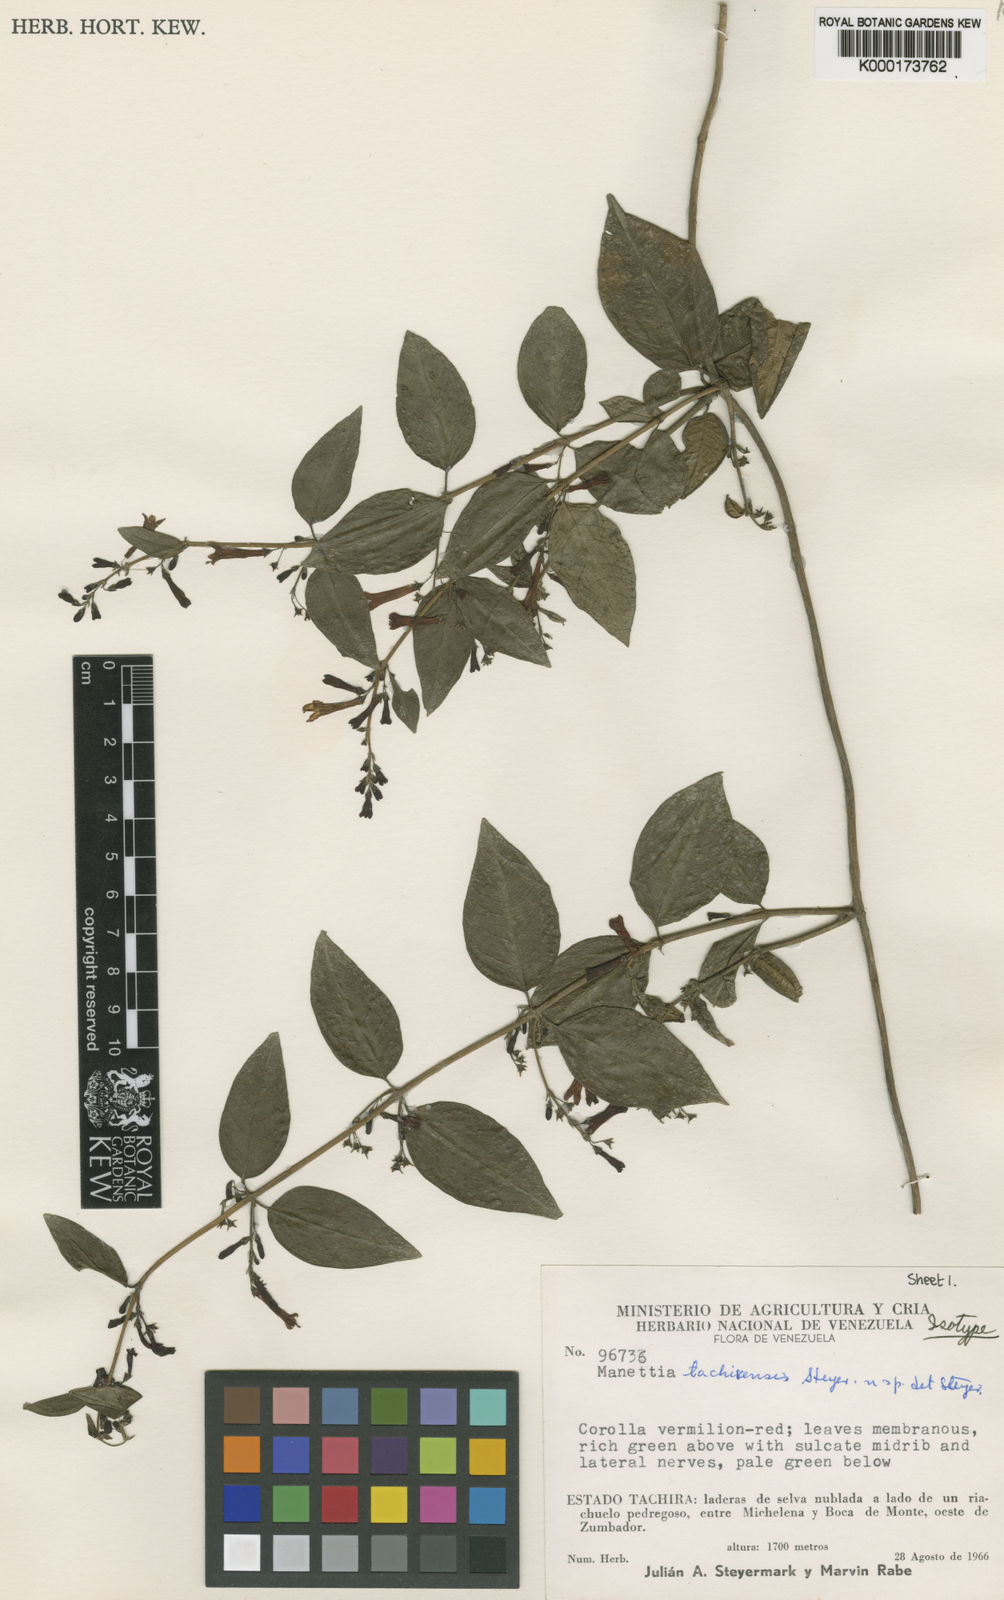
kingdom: Plantae
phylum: Tracheophyta
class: Magnoliopsida
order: Gentianales
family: Rubiaceae
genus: Manettia
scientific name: Manettia tachirensis
